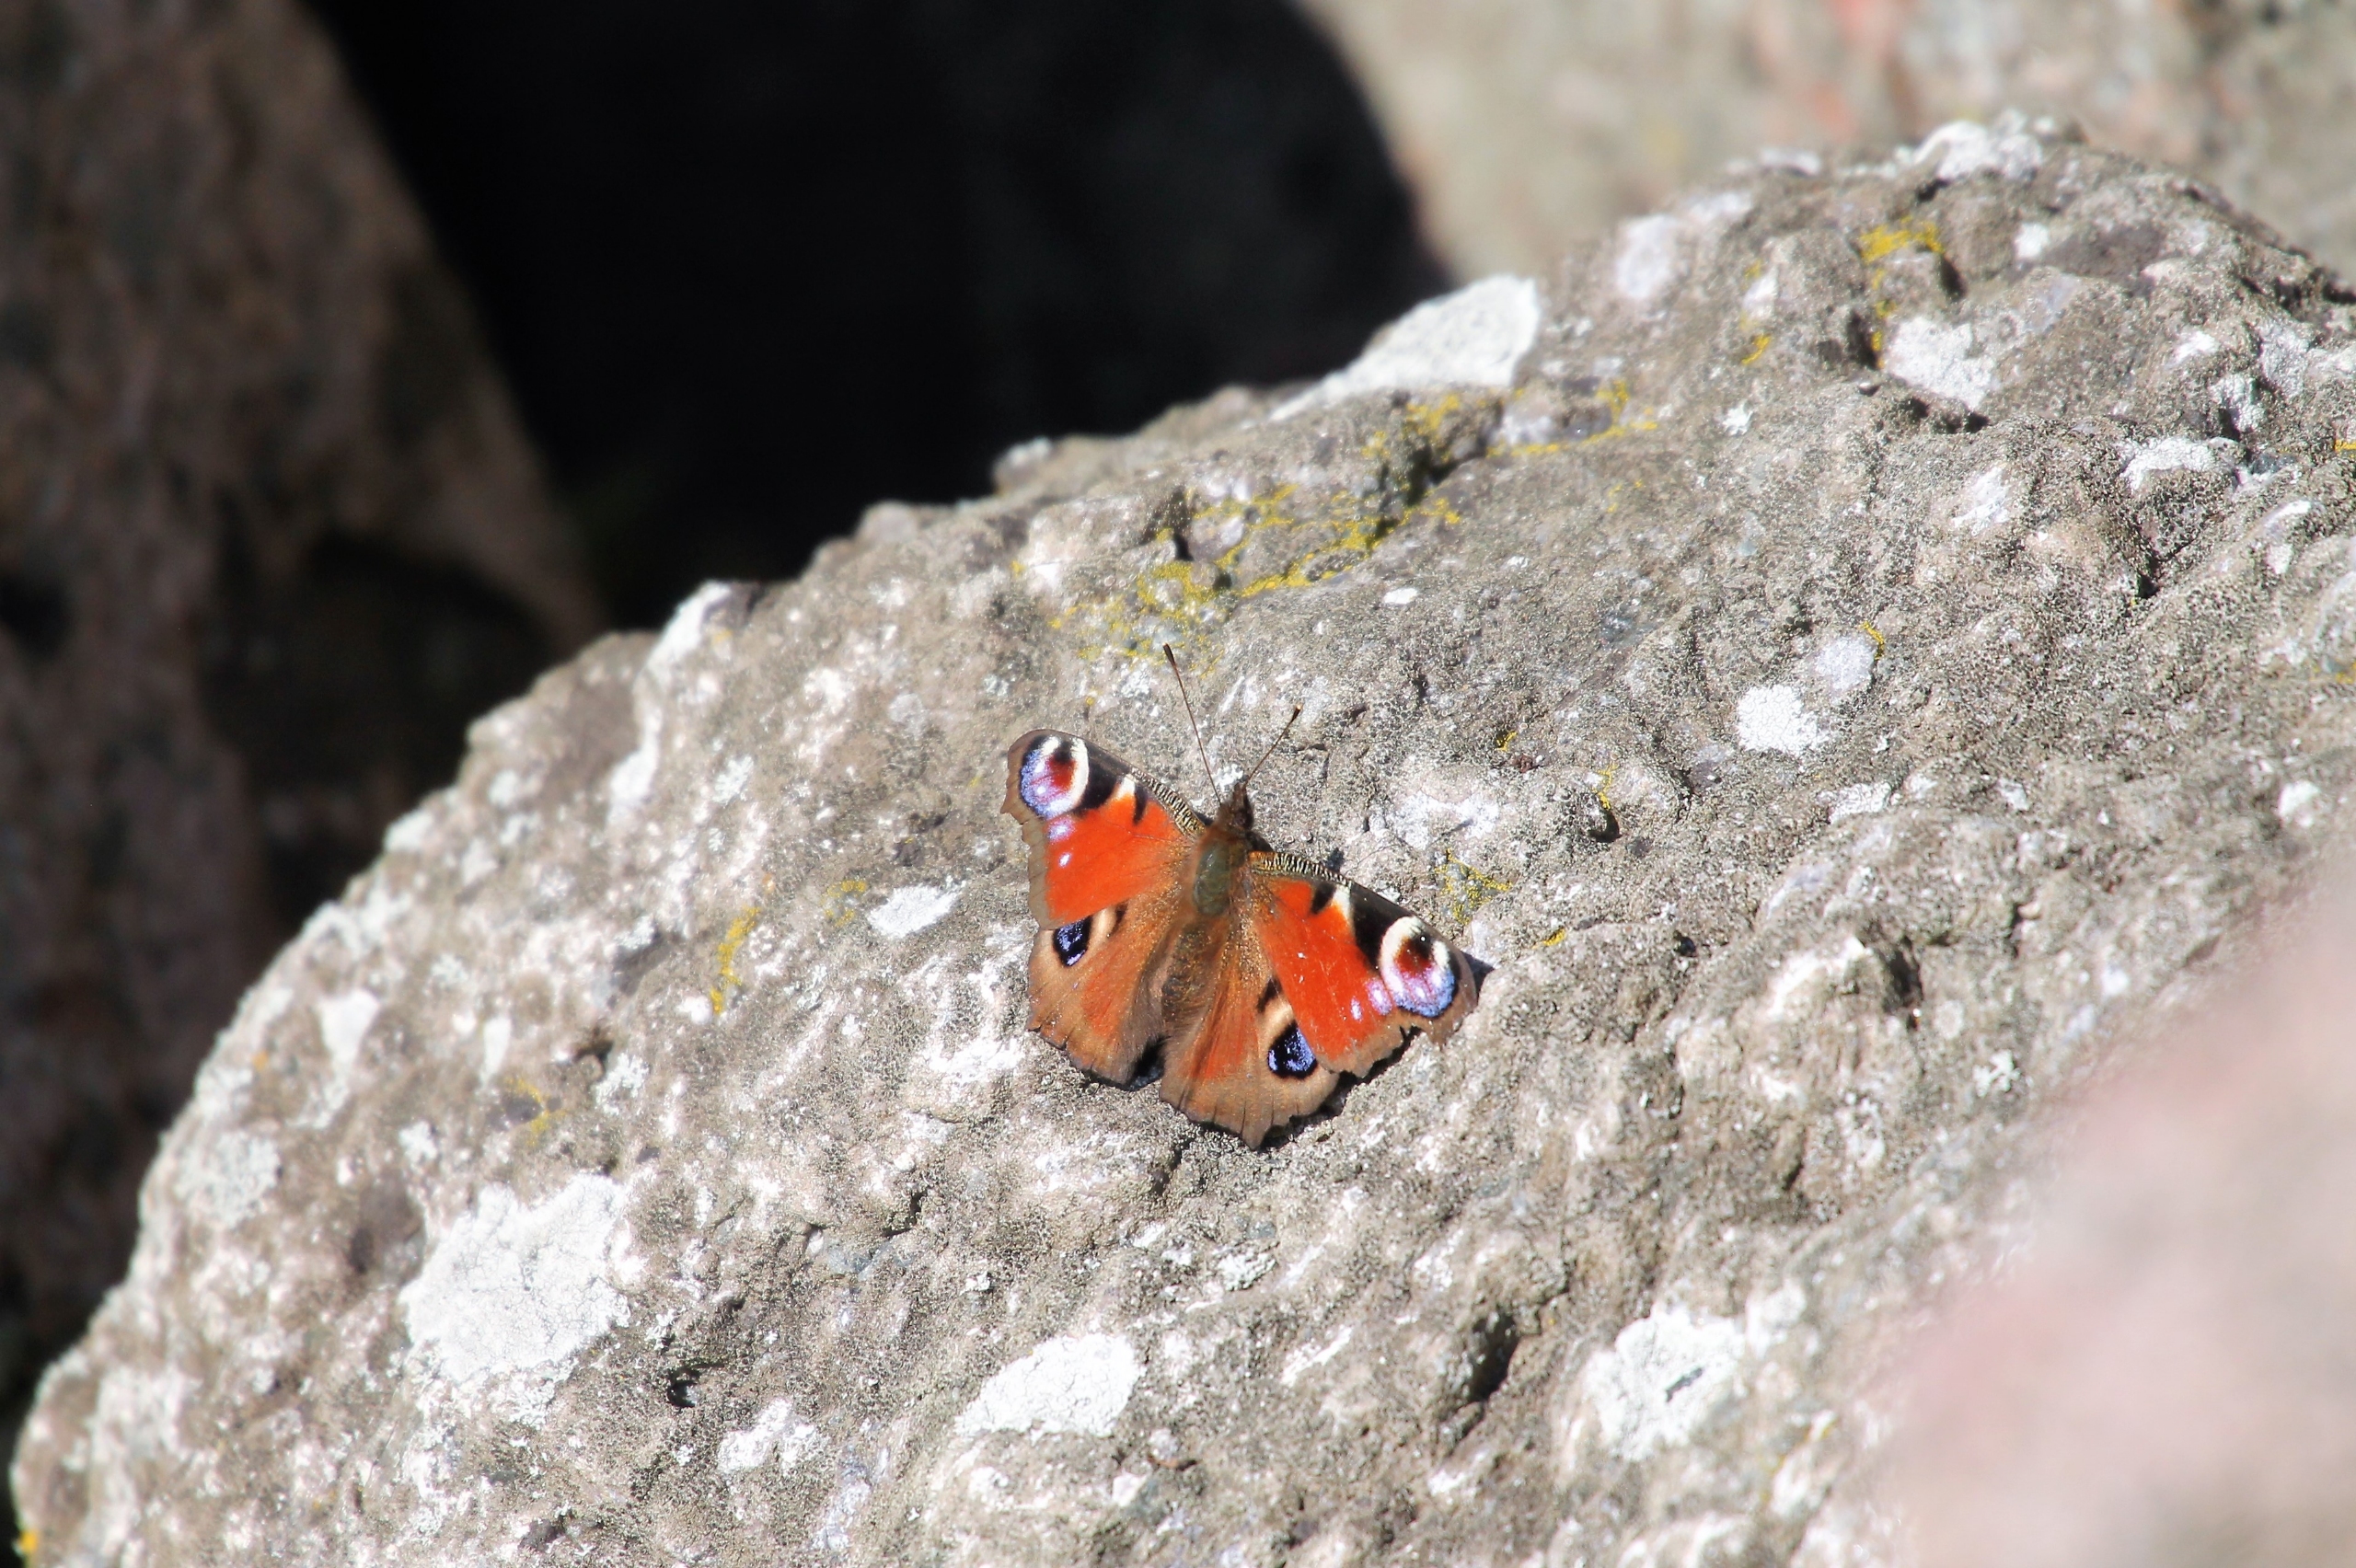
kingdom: Animalia
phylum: Arthropoda
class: Insecta
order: Lepidoptera
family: Nymphalidae
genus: Aglais
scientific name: Aglais io
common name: Dagpåfugleøje
